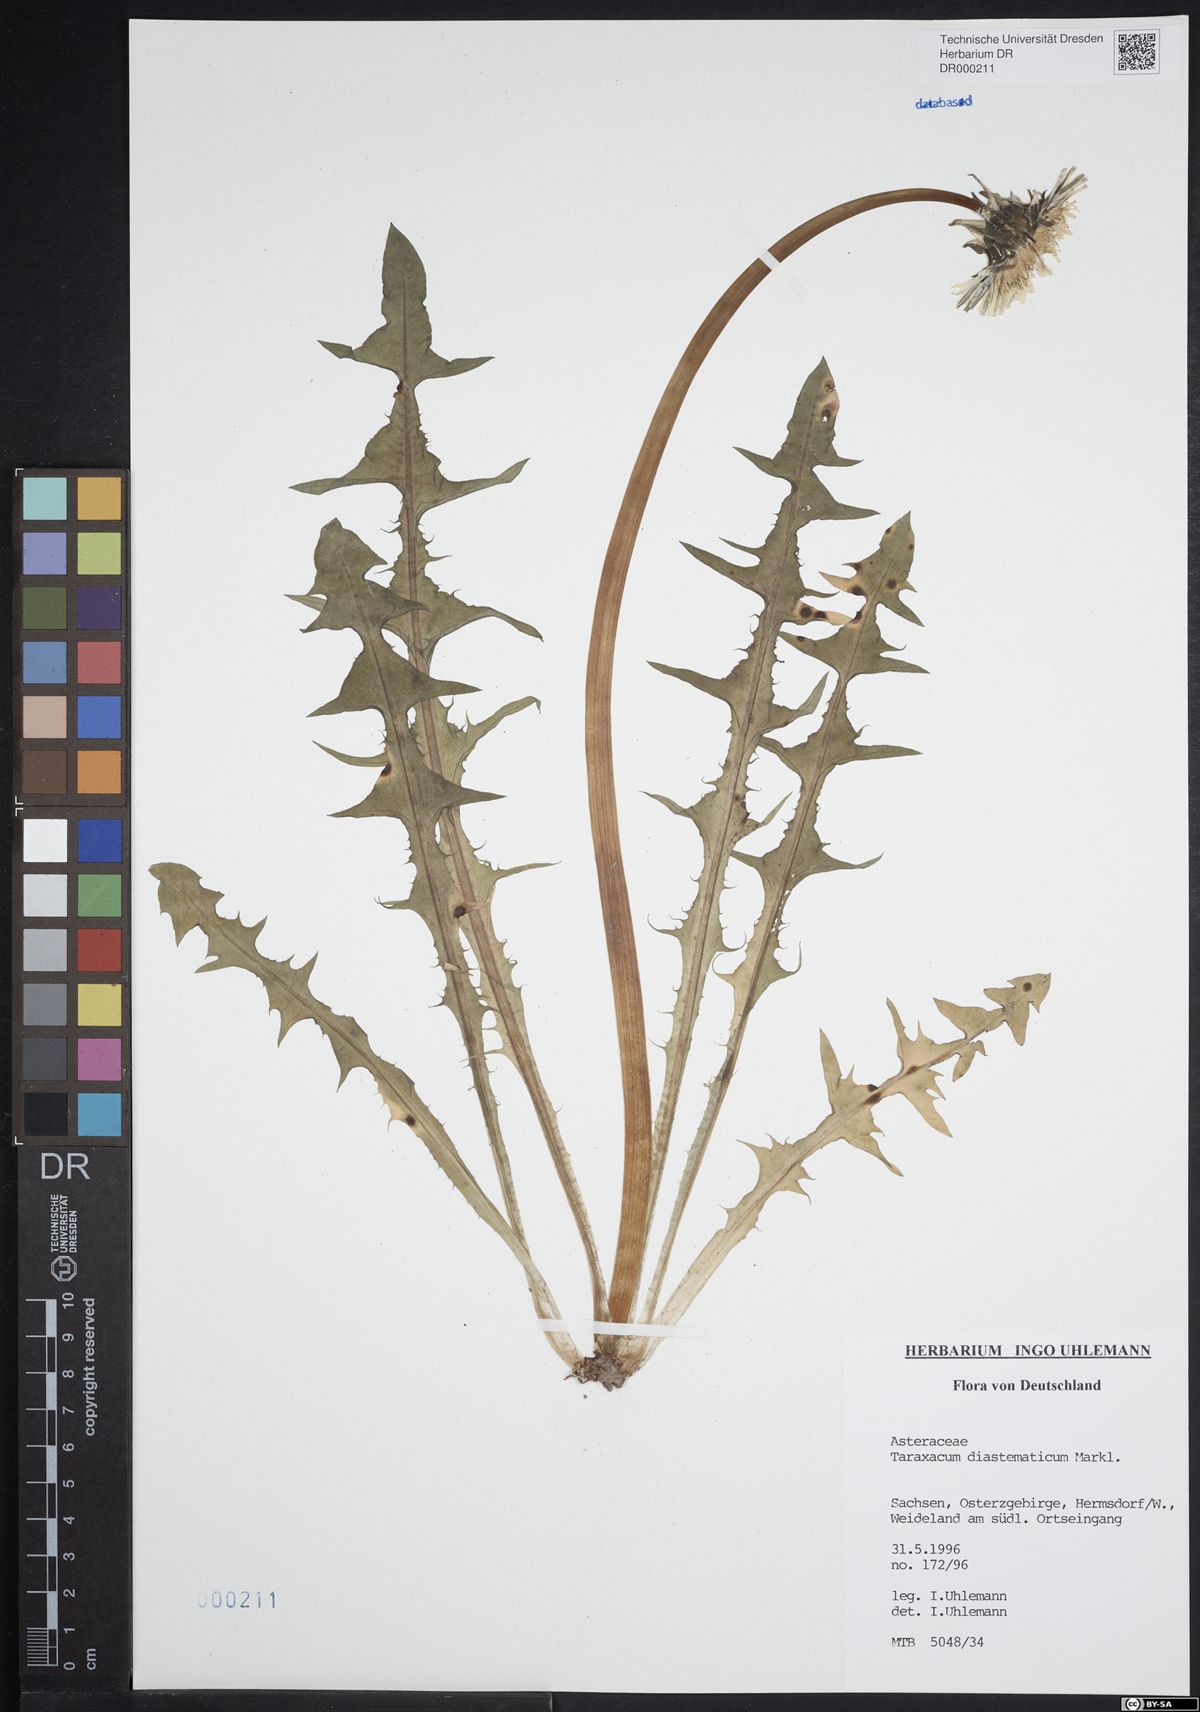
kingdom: Plantae
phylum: Tracheophyta
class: Magnoliopsida
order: Asterales
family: Asteraceae
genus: Taraxacum
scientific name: Taraxacum diastematicum
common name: Bulbous-lobed dandelion
